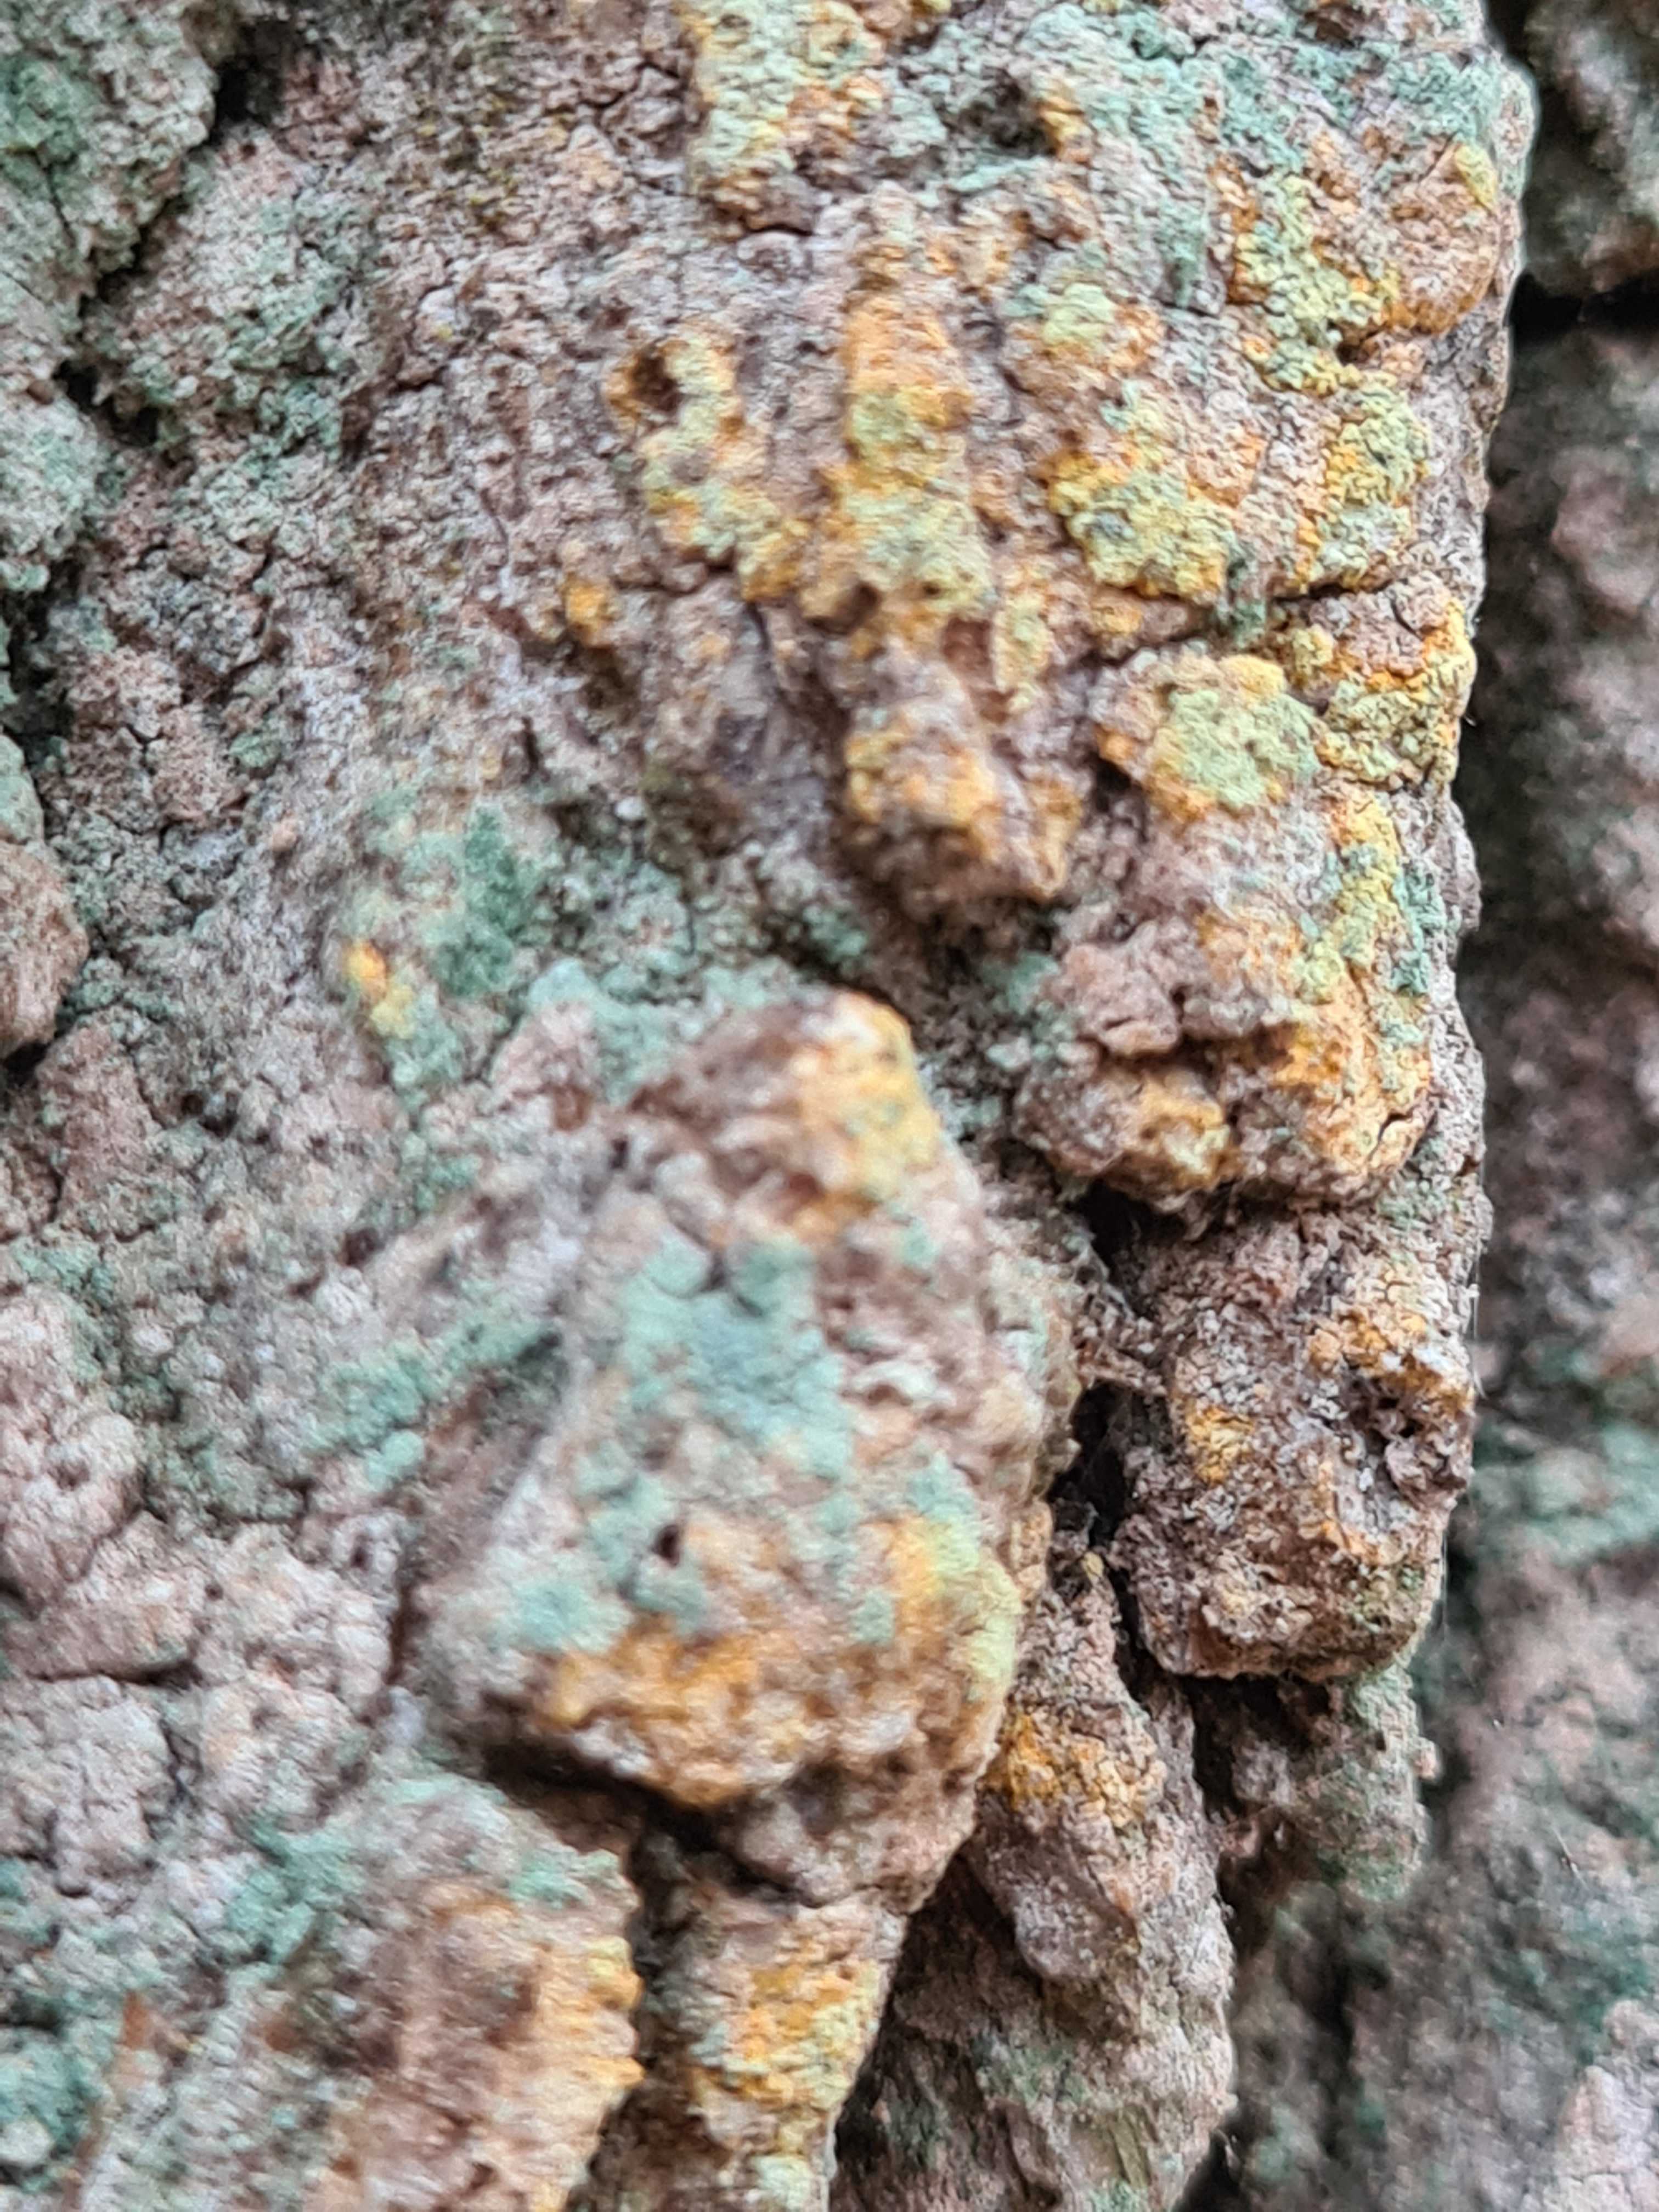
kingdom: Fungi
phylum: Ascomycota
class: Coniocybomycetes
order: Coniocybales
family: Coniocybaceae
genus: Chaenotheca
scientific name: Chaenotheca ferruginea
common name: rustbrun knappenålslav
